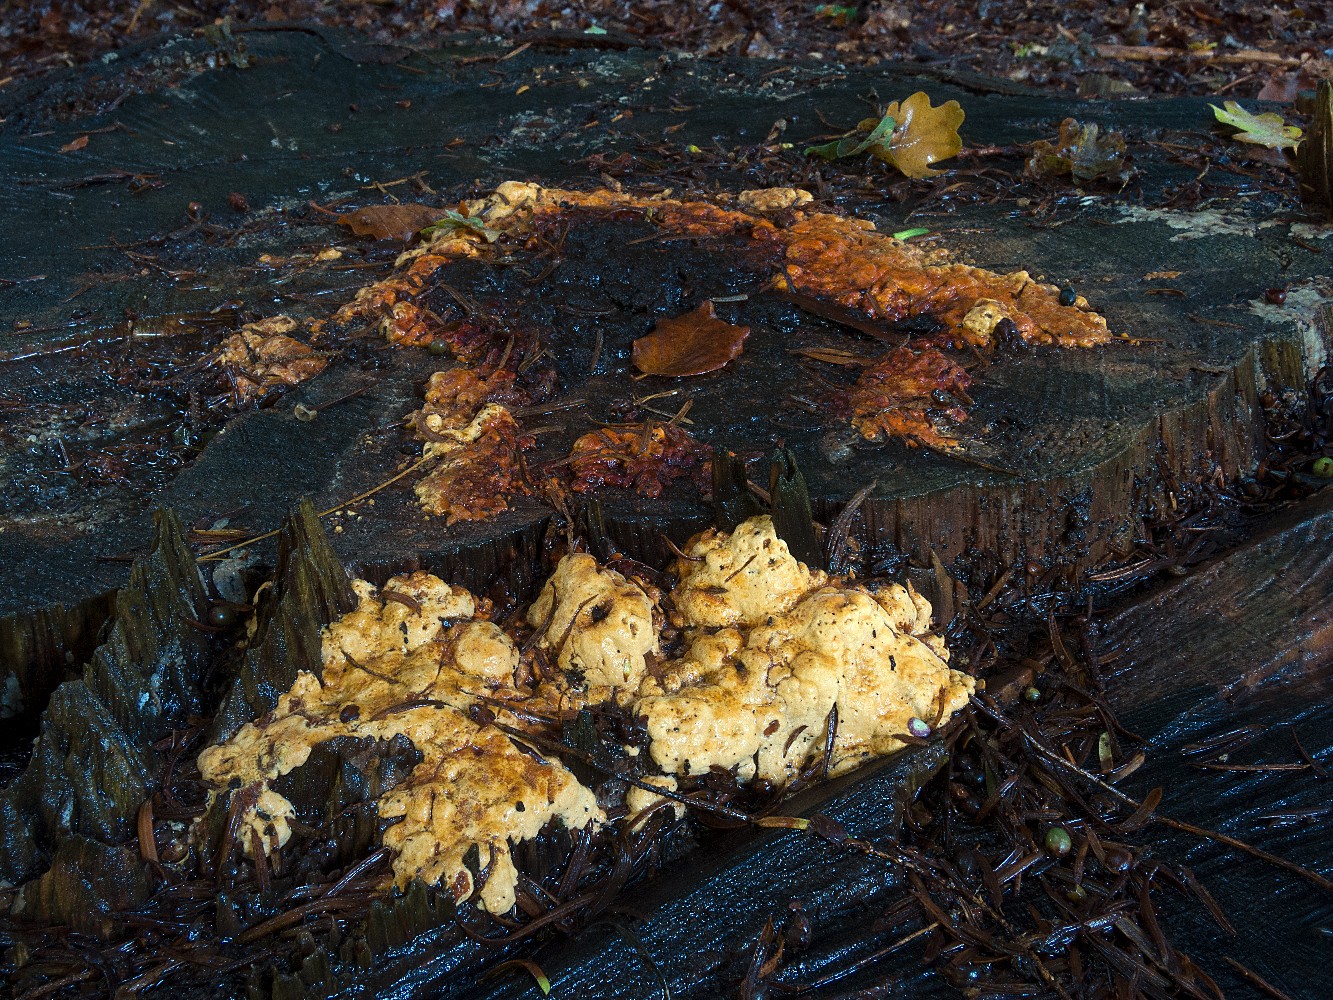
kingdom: Fungi
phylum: Basidiomycota
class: Agaricomycetes
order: Gloeophyllales
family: Gloeophyllaceae
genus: Gloeophyllum
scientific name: Gloeophyllum odoratum
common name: duftende korkhat
